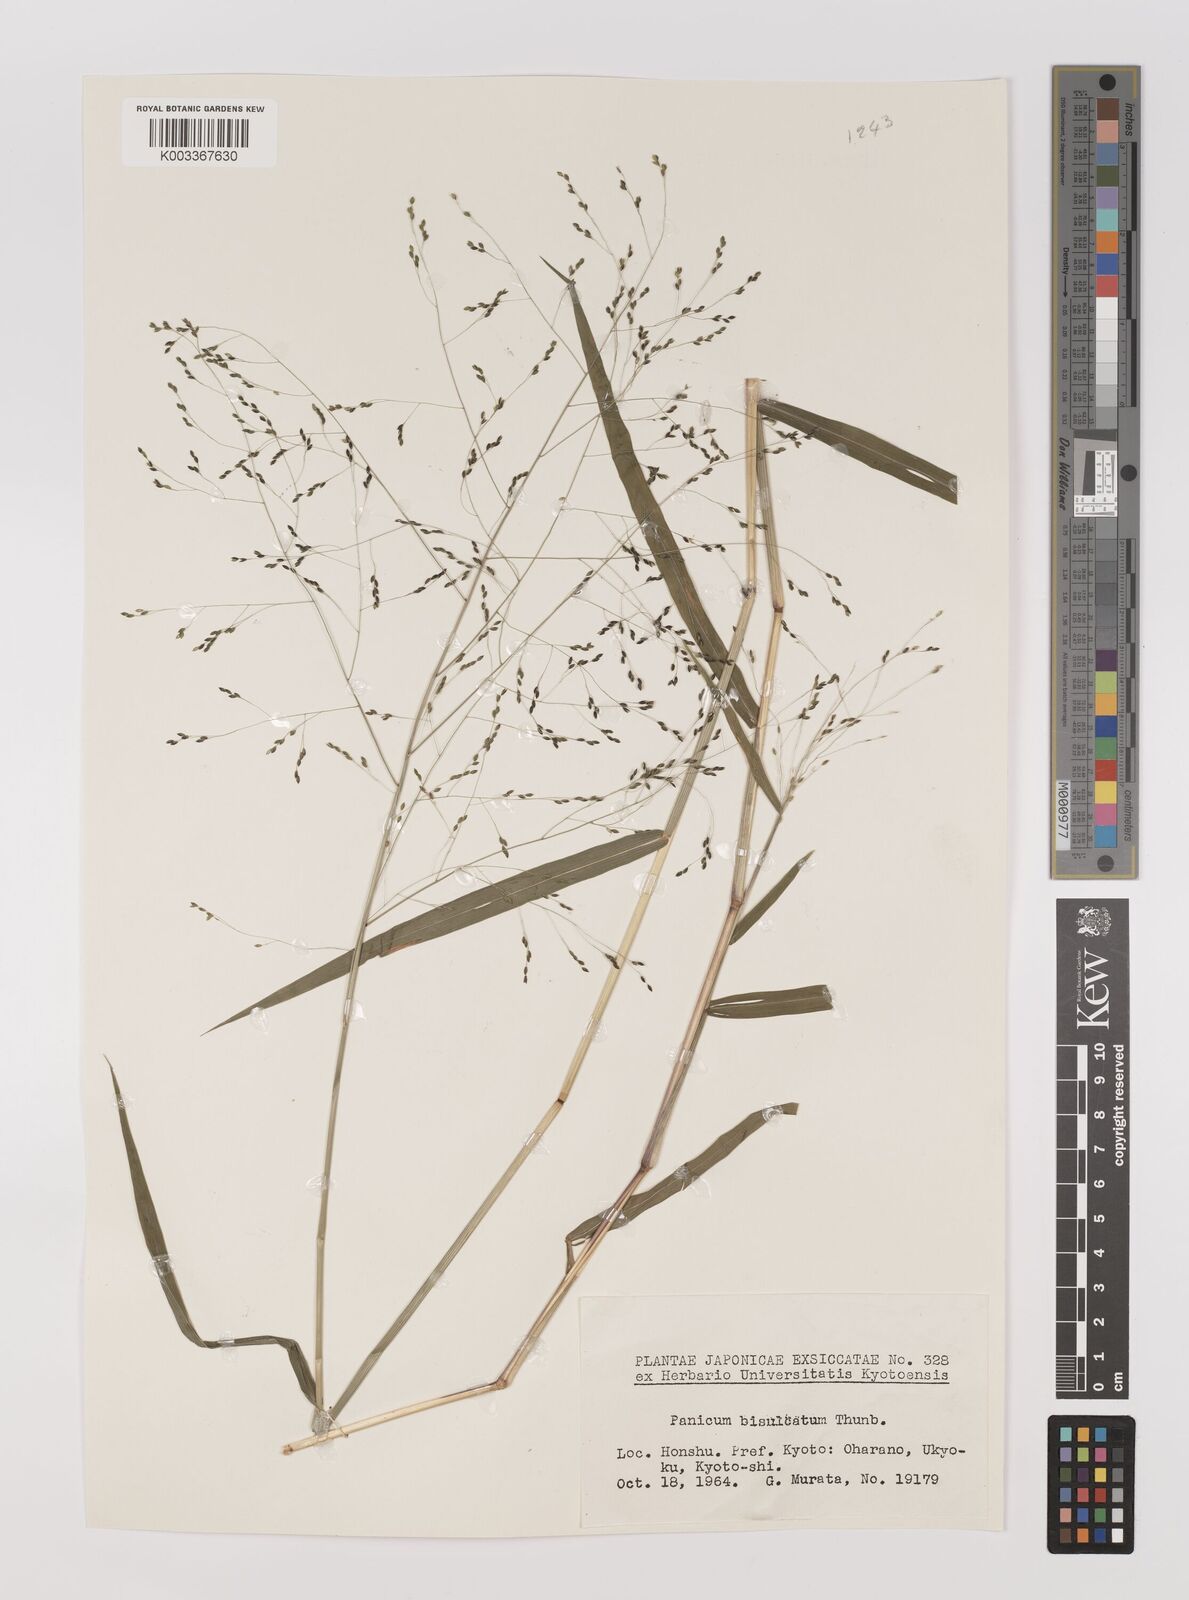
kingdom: Plantae
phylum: Tracheophyta
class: Liliopsida
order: Poales
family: Poaceae
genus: Panicum
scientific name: Panicum bisulcatum
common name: Japanese panicgrass
